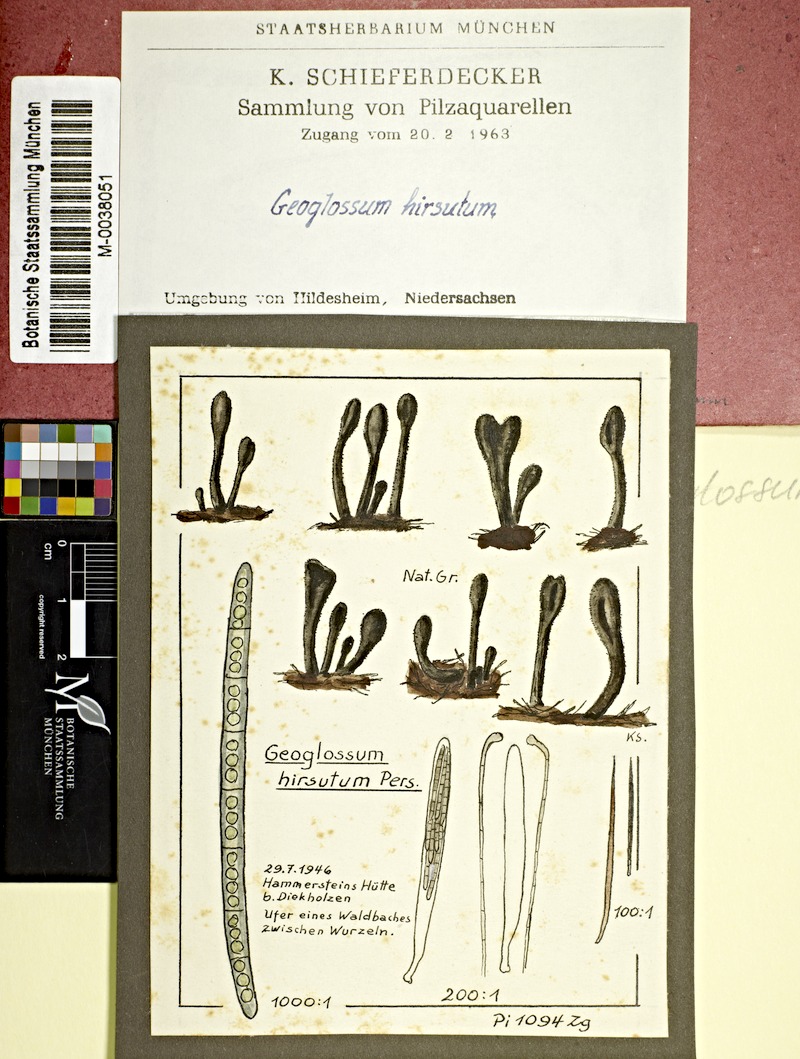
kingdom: Fungi
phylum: Ascomycota
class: Geoglossomycetes
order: Geoglossales
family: Geoglossaceae
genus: Trichoglossum
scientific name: Trichoglossum hirsutum
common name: Hairy earthtongue
